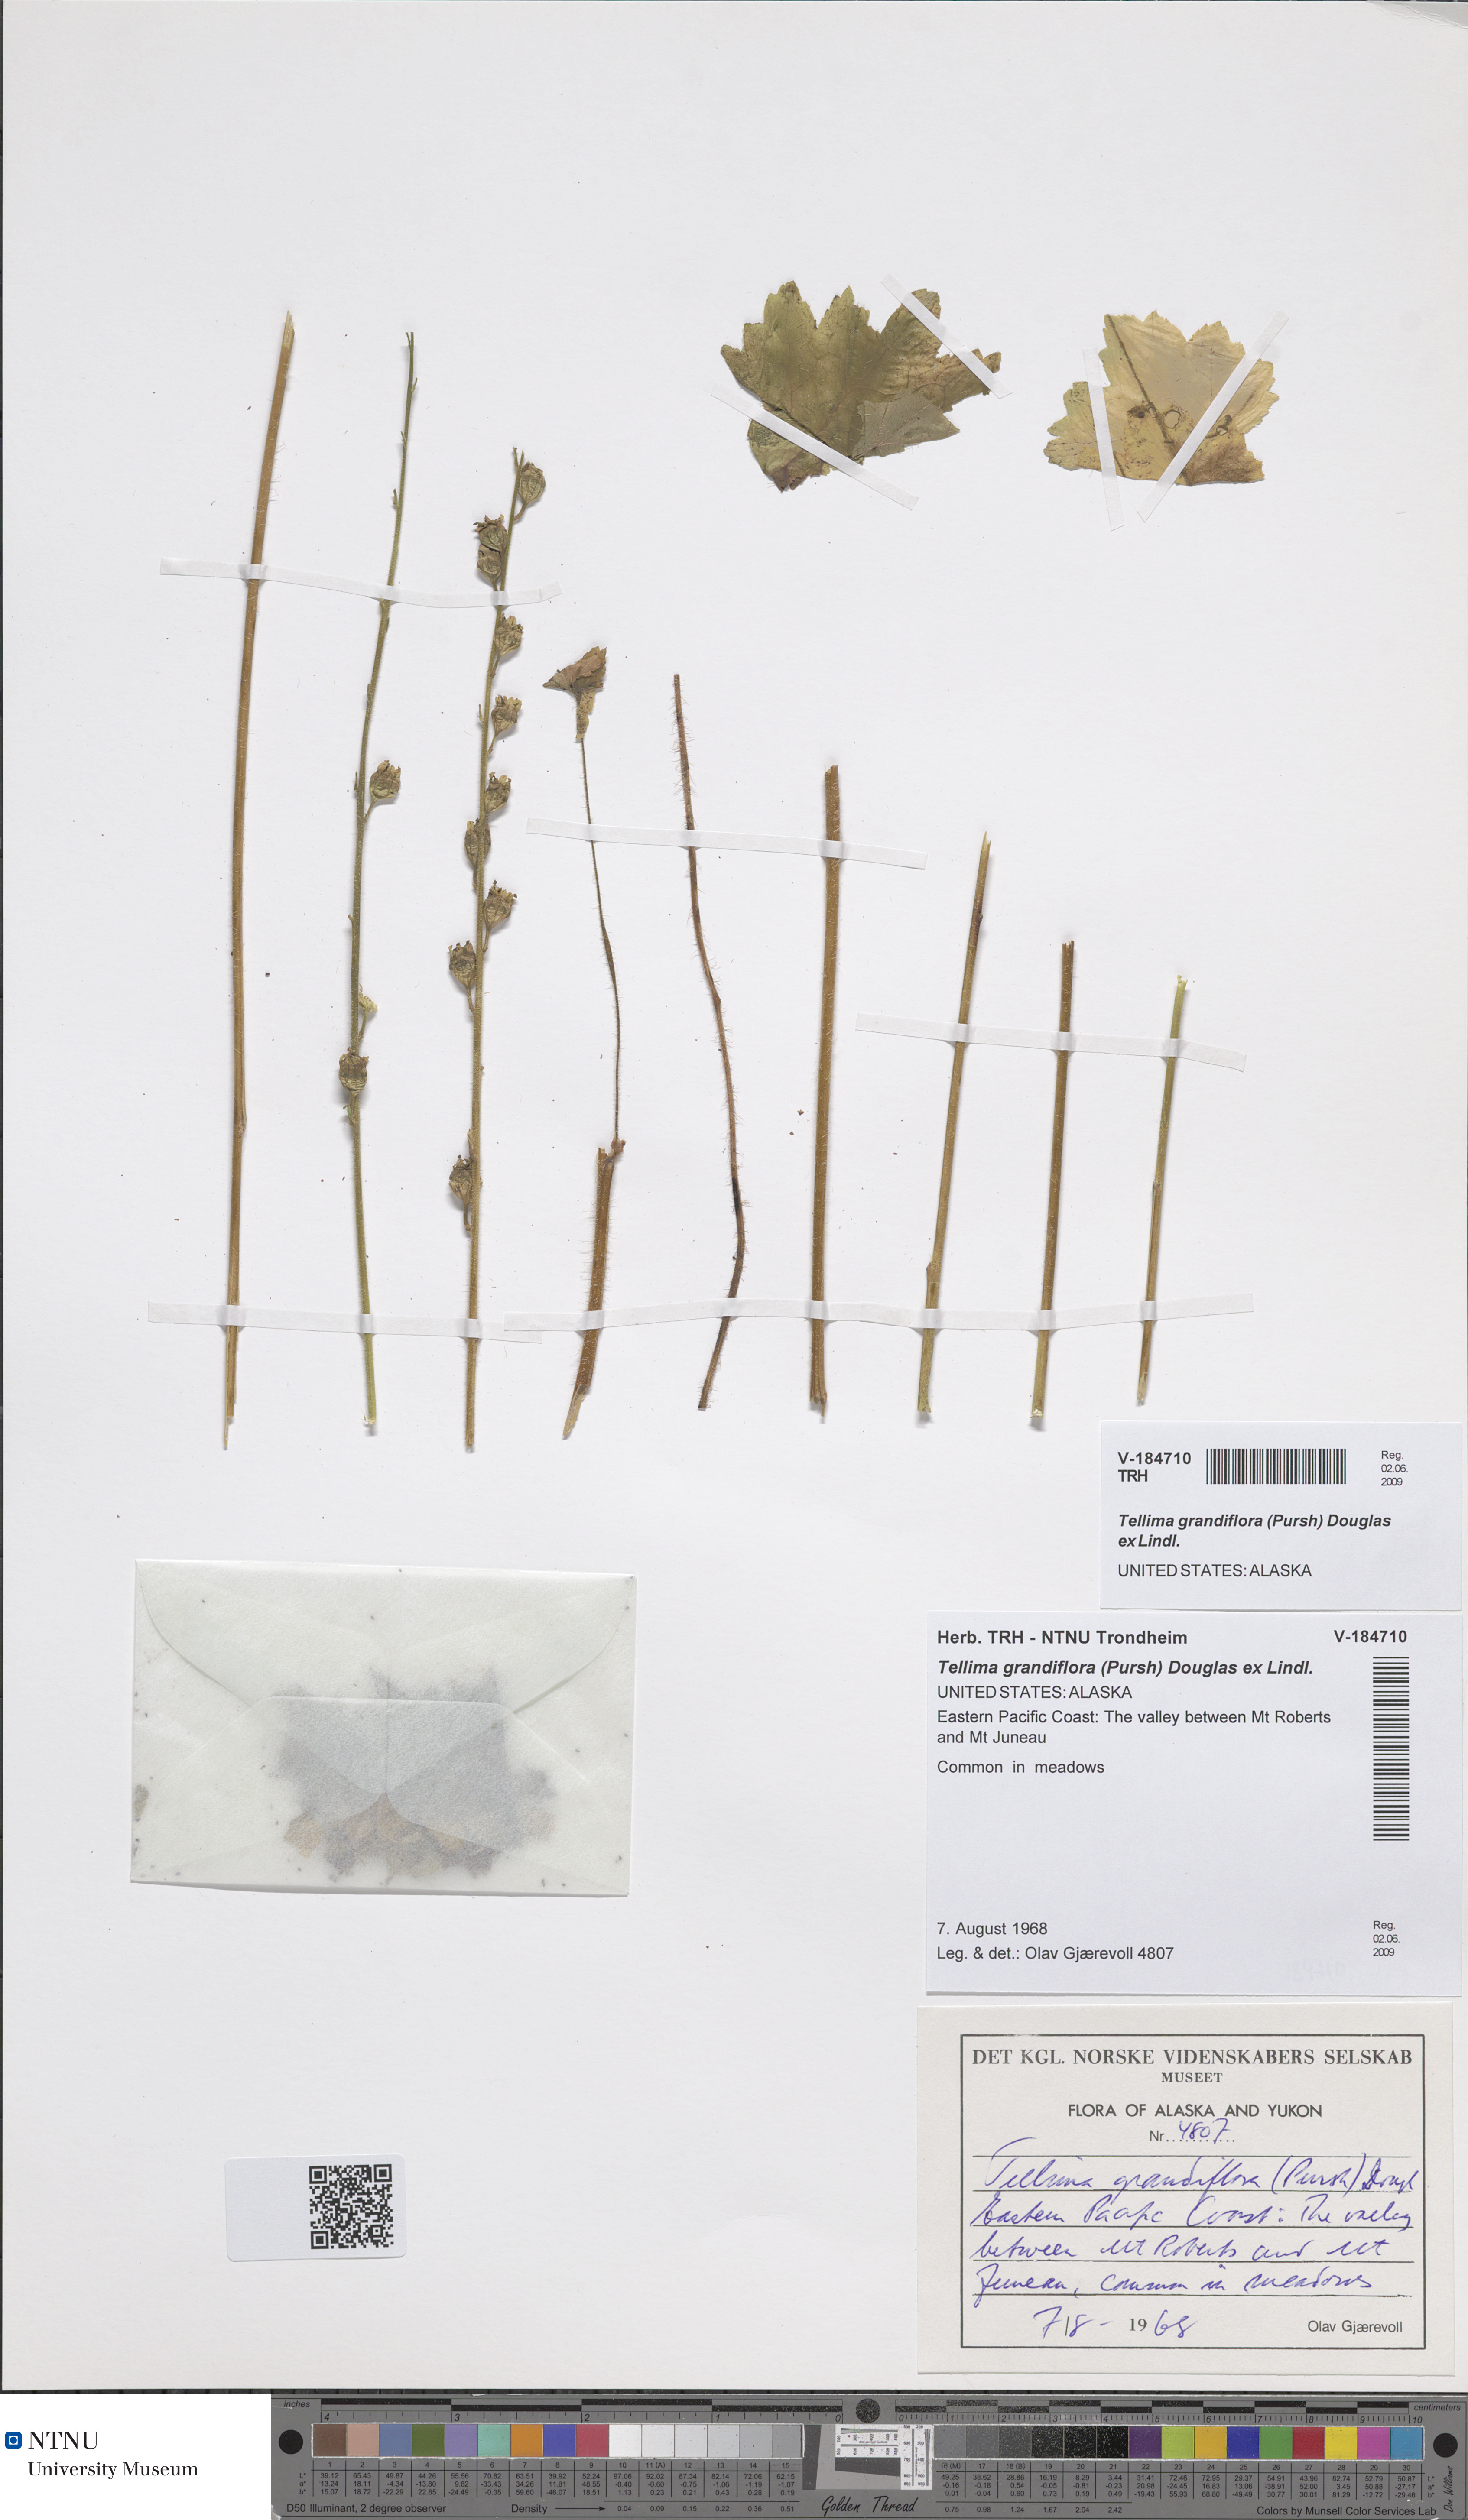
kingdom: Plantae
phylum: Tracheophyta
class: Magnoliopsida
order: Saxifragales
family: Saxifragaceae
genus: Tellima
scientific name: Tellima grandiflora
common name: Fringecups
